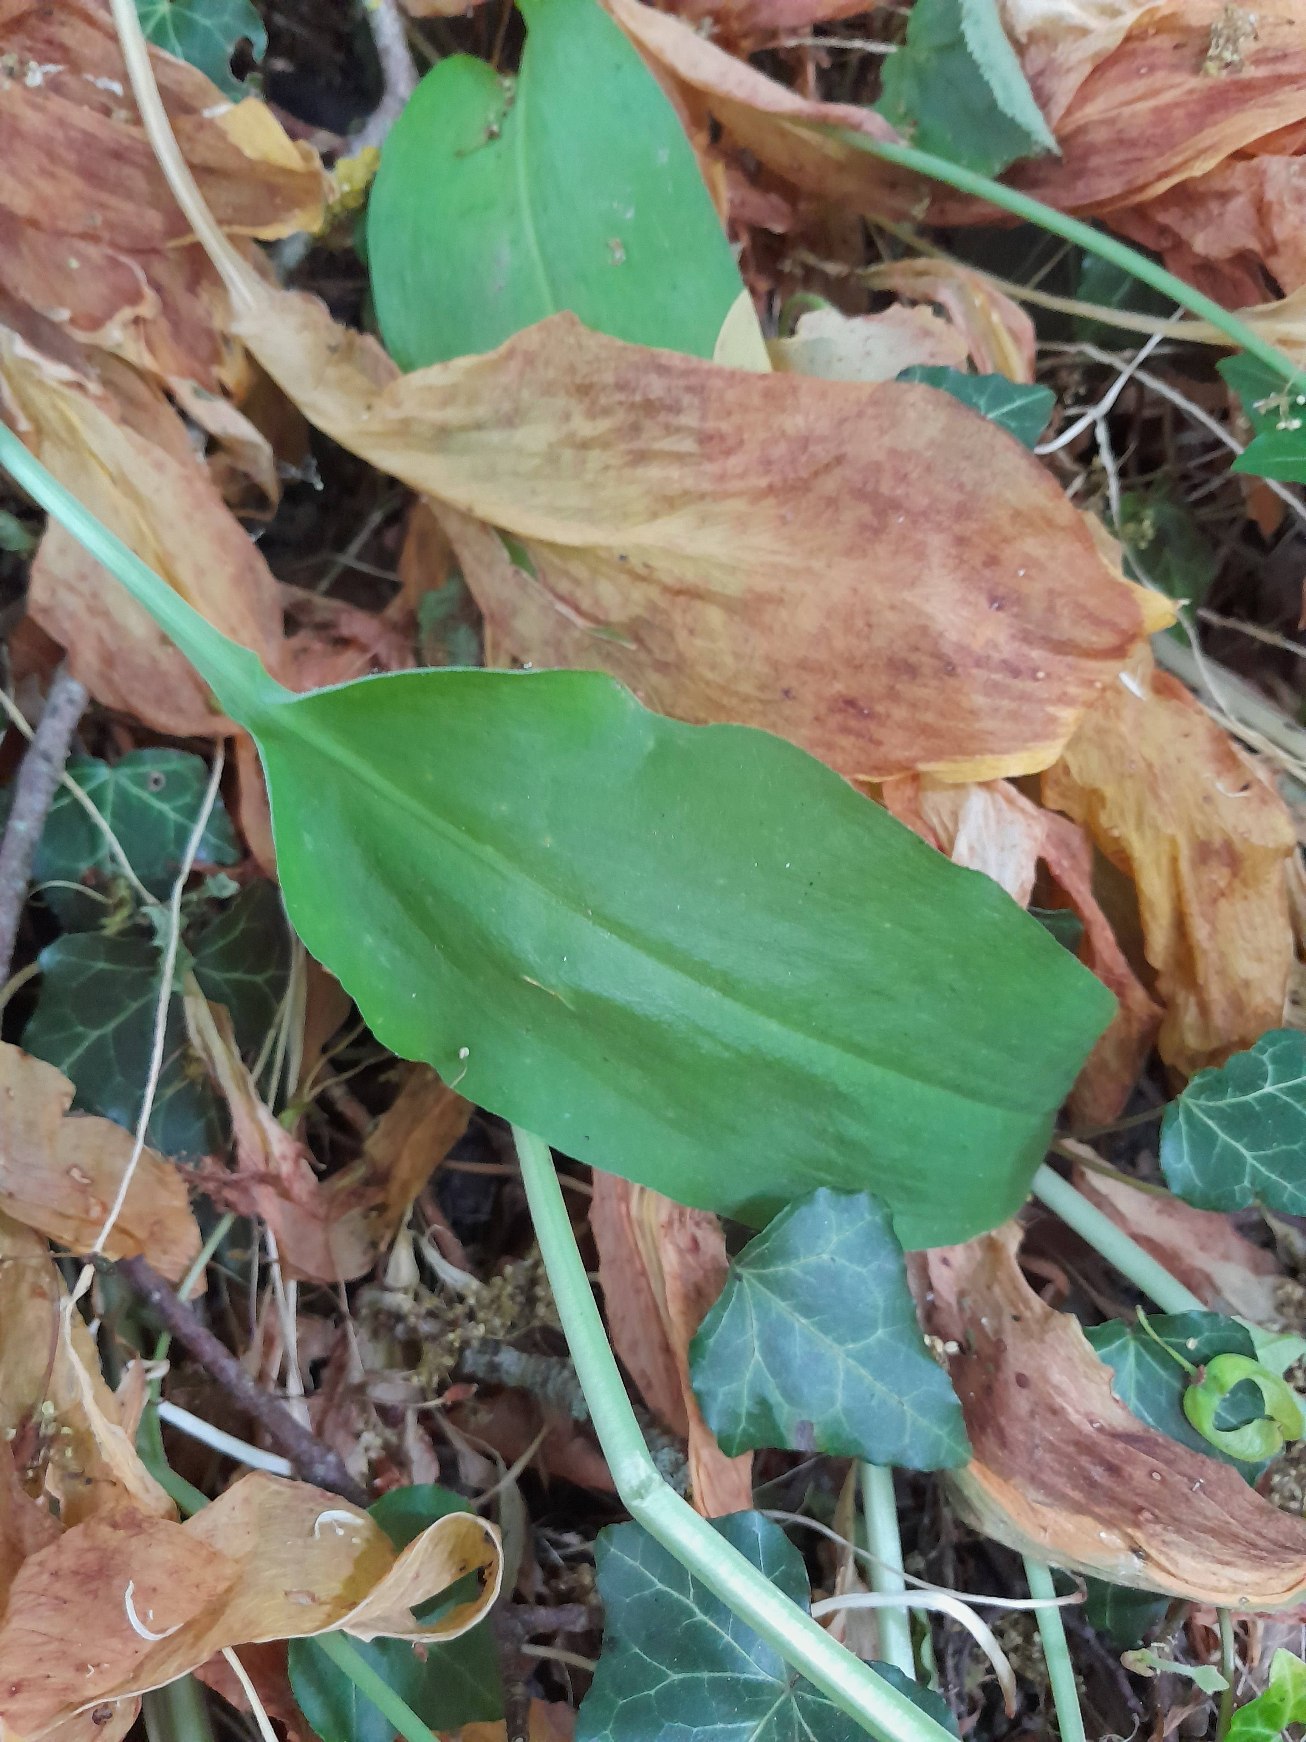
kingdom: Plantae
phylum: Tracheophyta
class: Liliopsida
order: Asparagales
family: Amaryllidaceae
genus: Allium
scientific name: Allium ursinum
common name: Rams-løg
